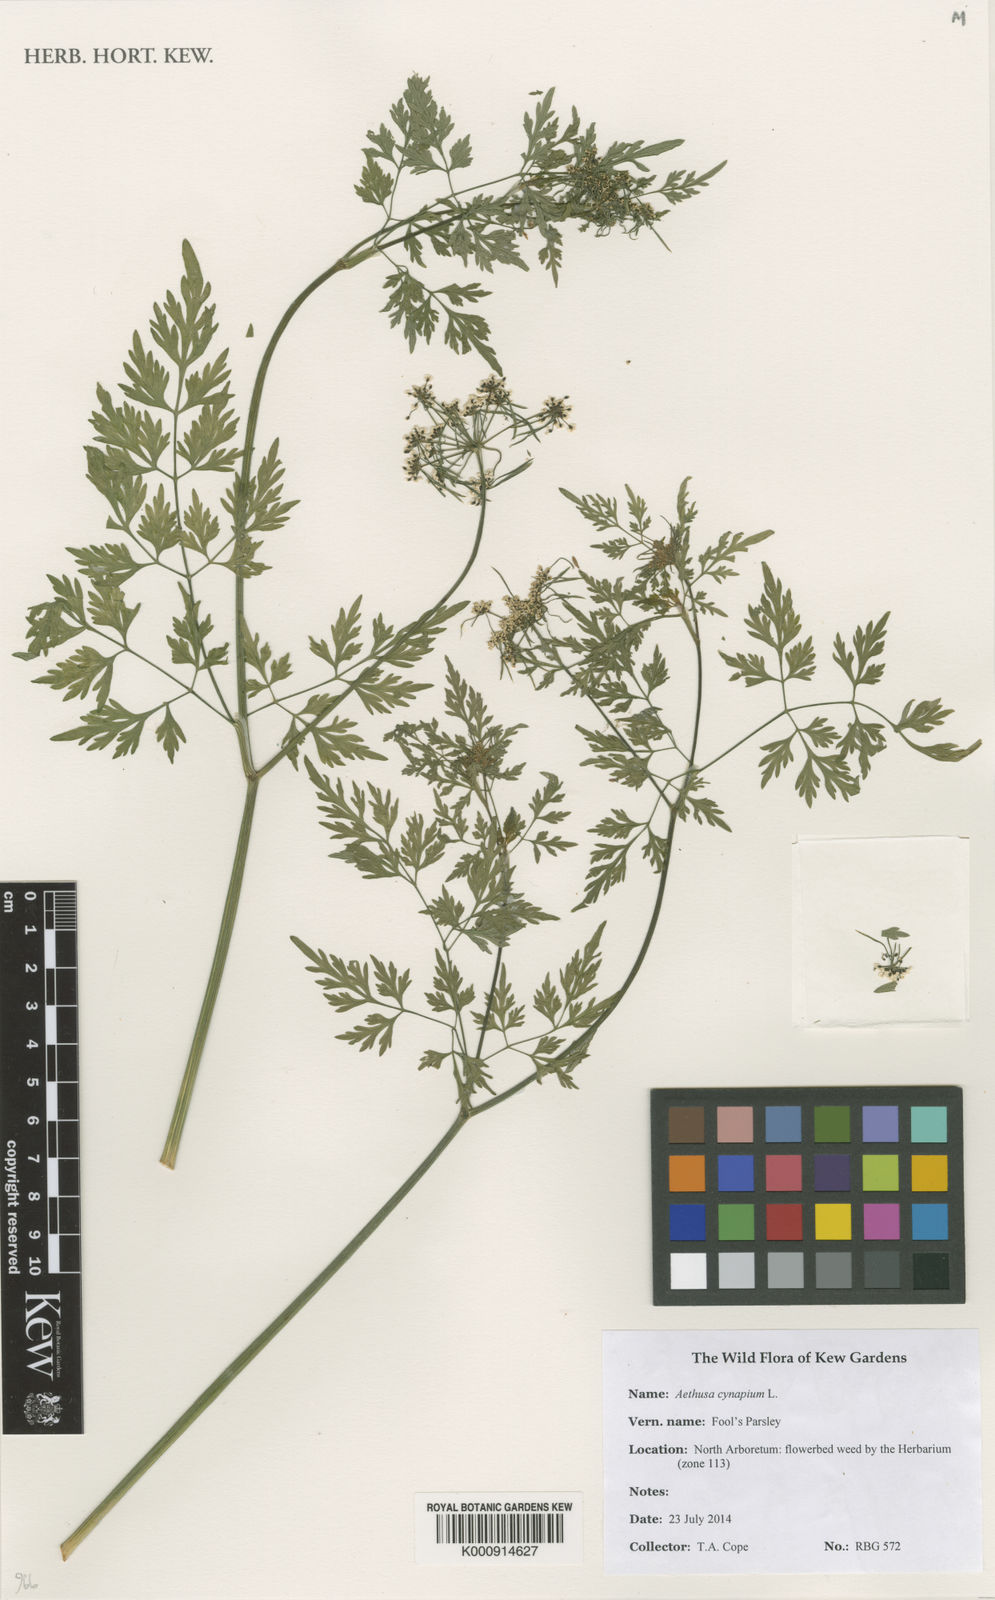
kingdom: Plantae
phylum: Tracheophyta
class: Magnoliopsida
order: Apiales
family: Apiaceae
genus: Aethusa
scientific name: Aethusa cynapium
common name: Fool's parsley
